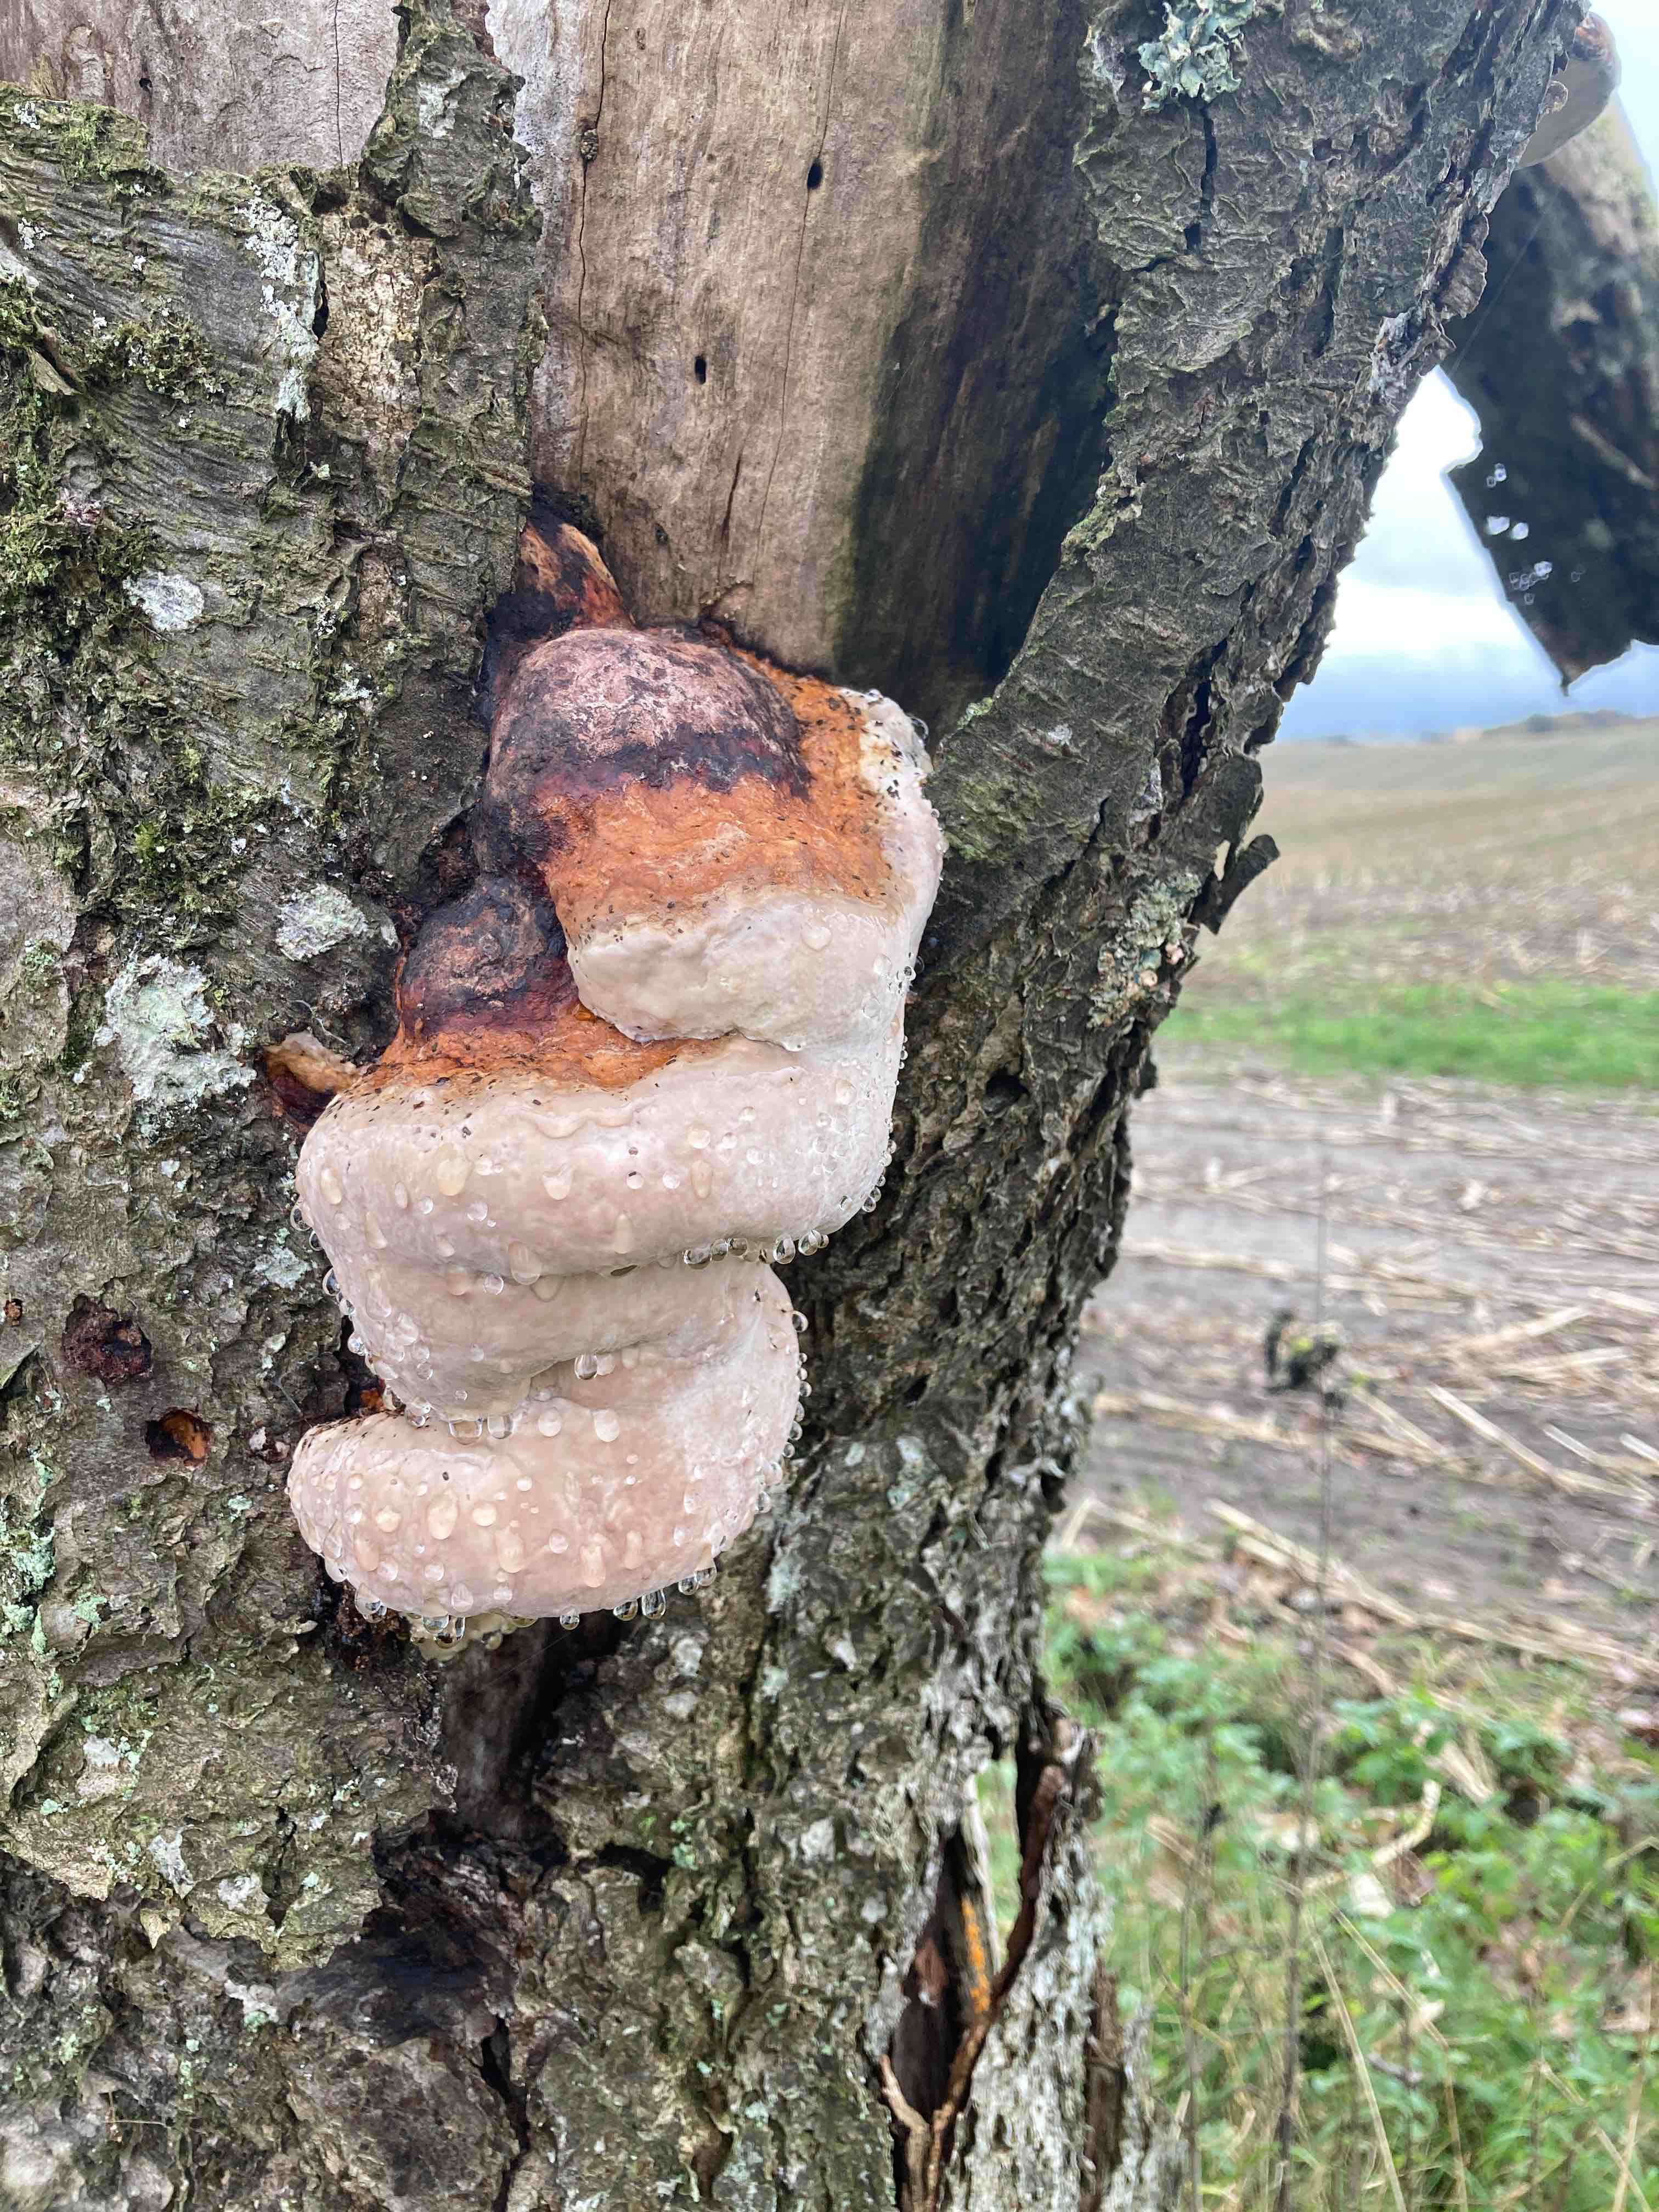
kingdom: Fungi
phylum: Basidiomycota
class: Agaricomycetes
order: Polyporales
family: Fomitopsidaceae
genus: Fomitopsis
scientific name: Fomitopsis pinicola
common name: randbæltet hovporesvamp
